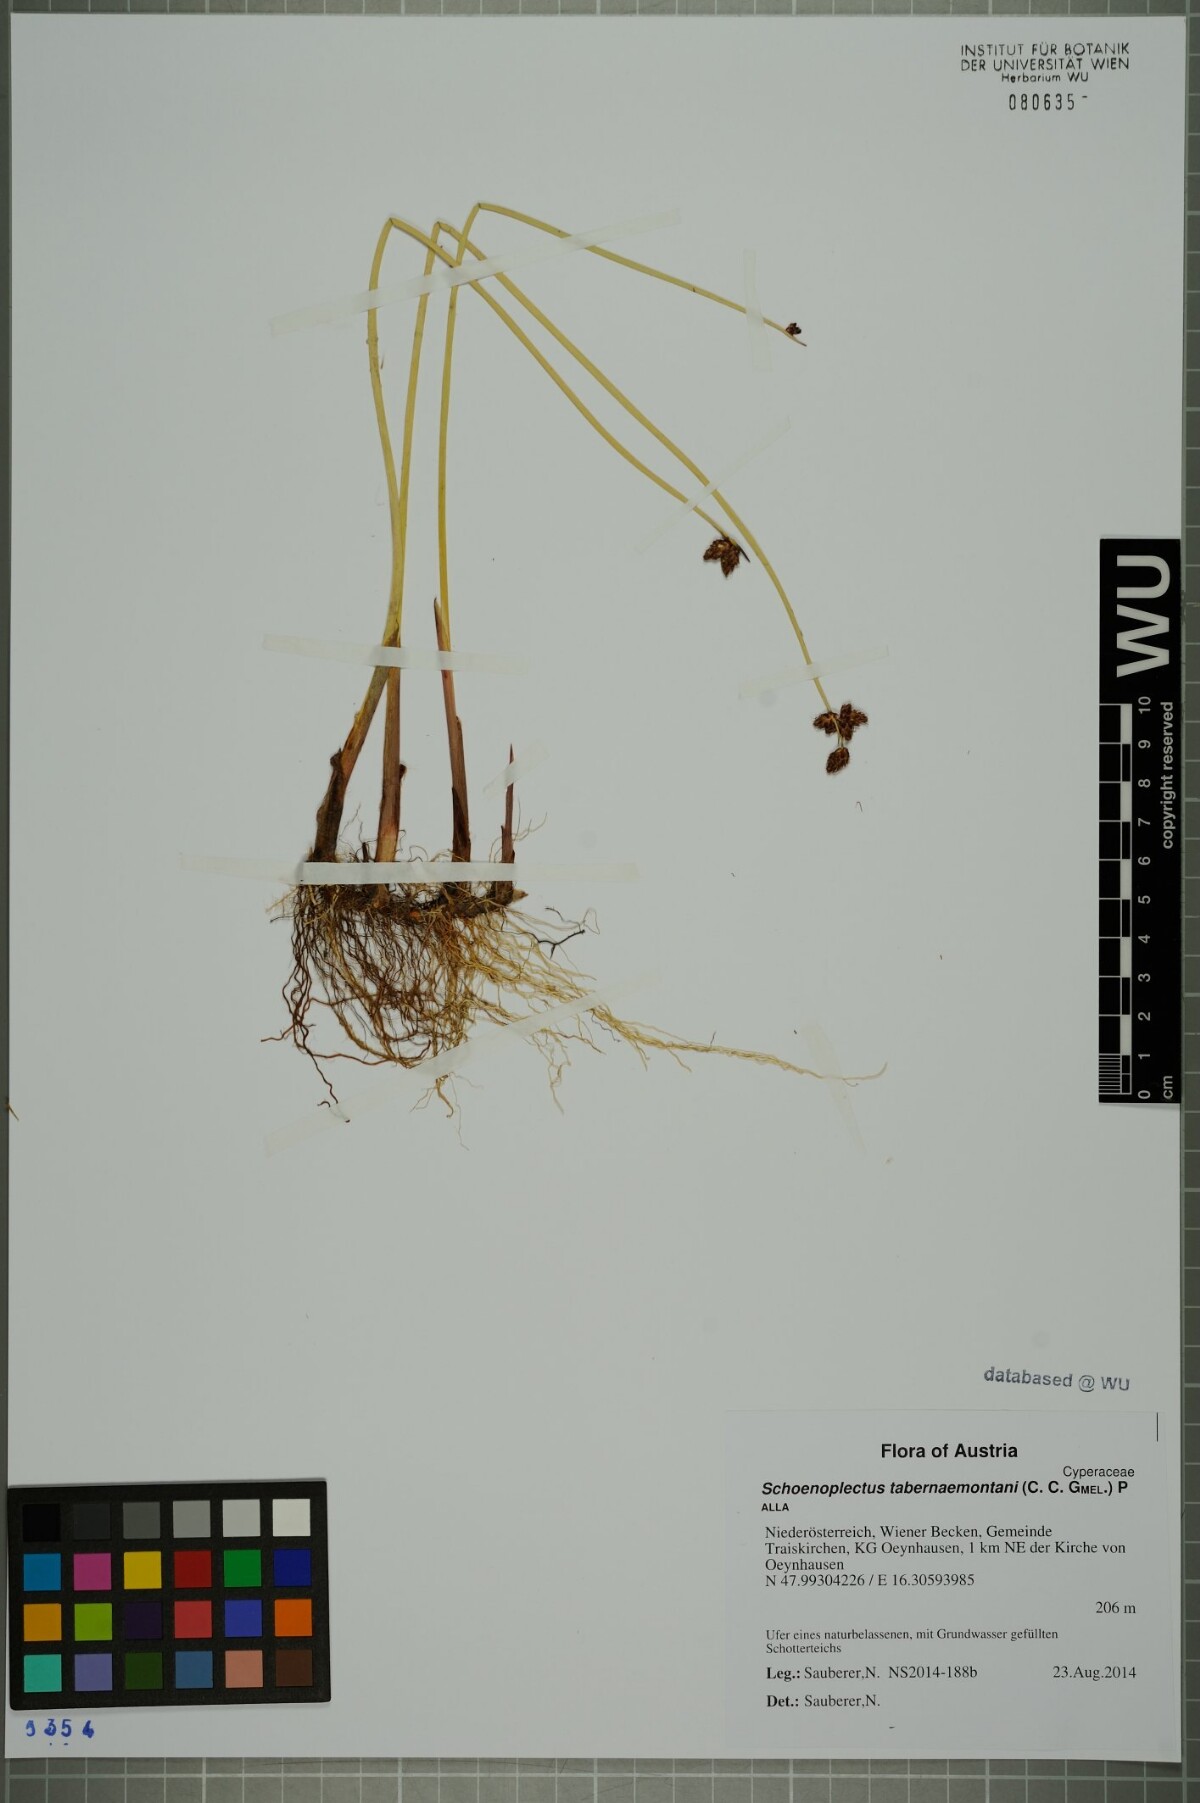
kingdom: Plantae
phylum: Tracheophyta
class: Liliopsida
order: Poales
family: Cyperaceae
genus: Schoenoplectus
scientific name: Schoenoplectus tabernaemontani
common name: Grey club-rush
